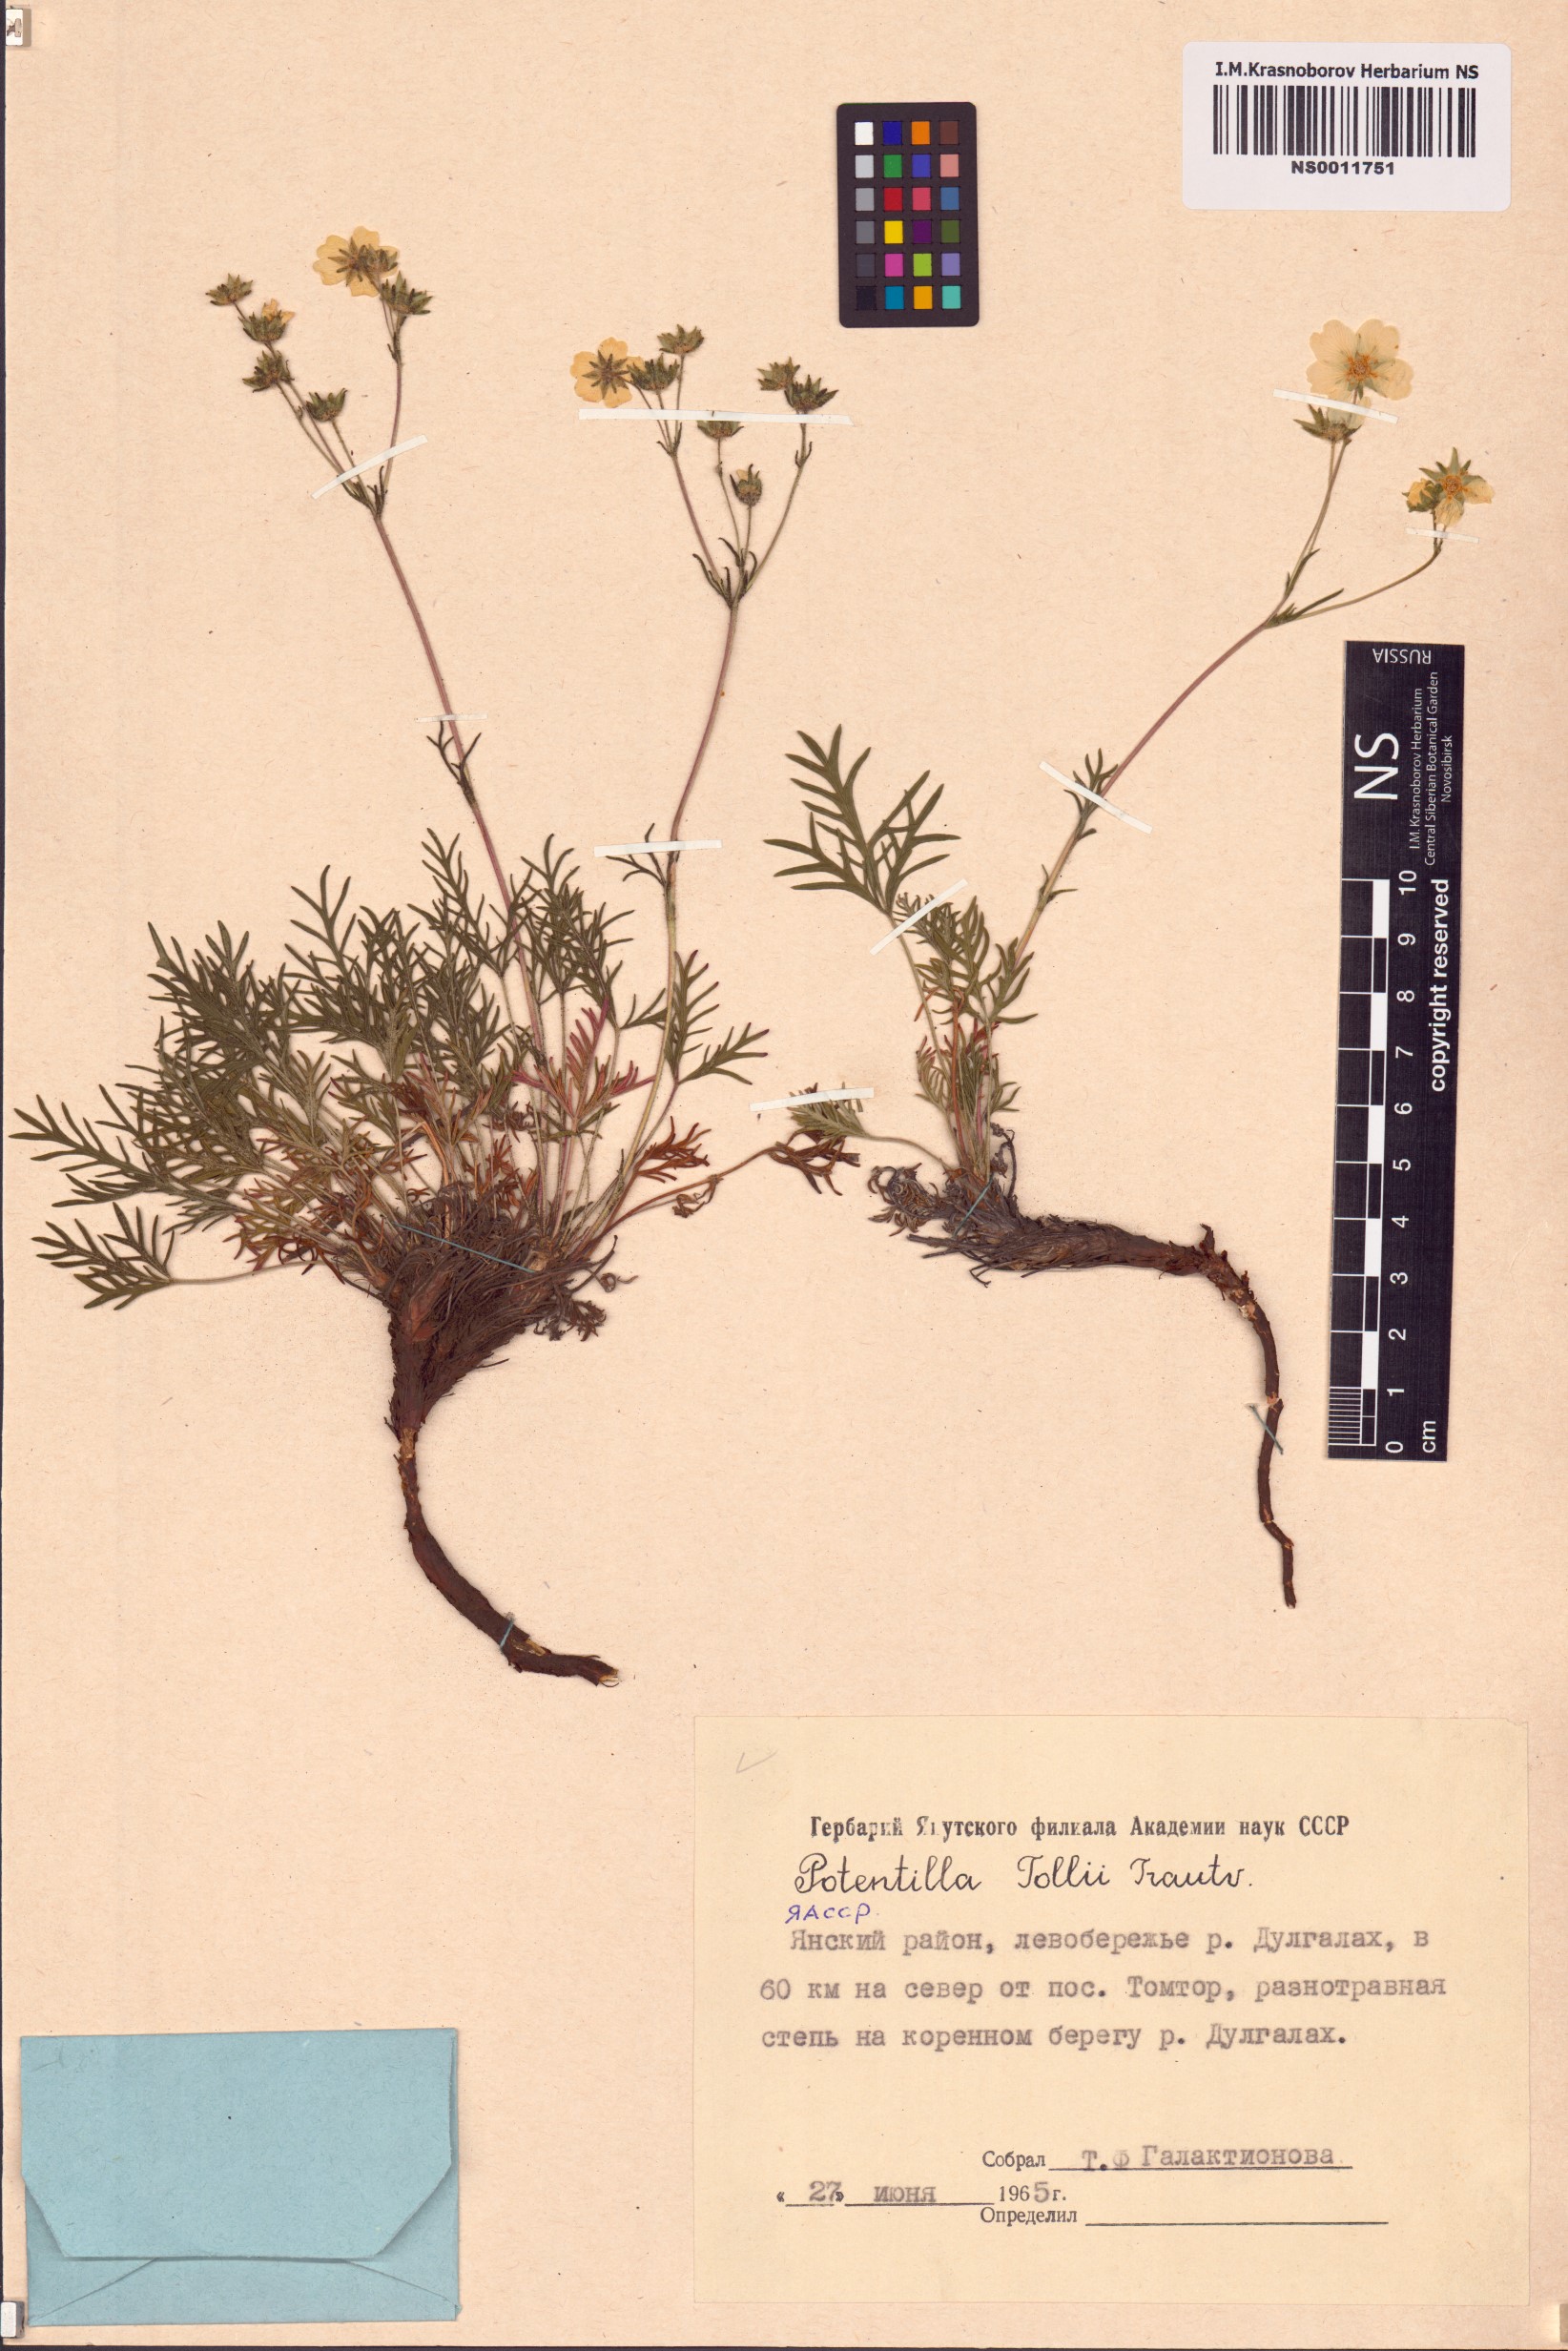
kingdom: Plantae
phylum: Tracheophyta
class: Magnoliopsida
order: Rosales
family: Rosaceae
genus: Potentilla
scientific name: Potentilla tollii
